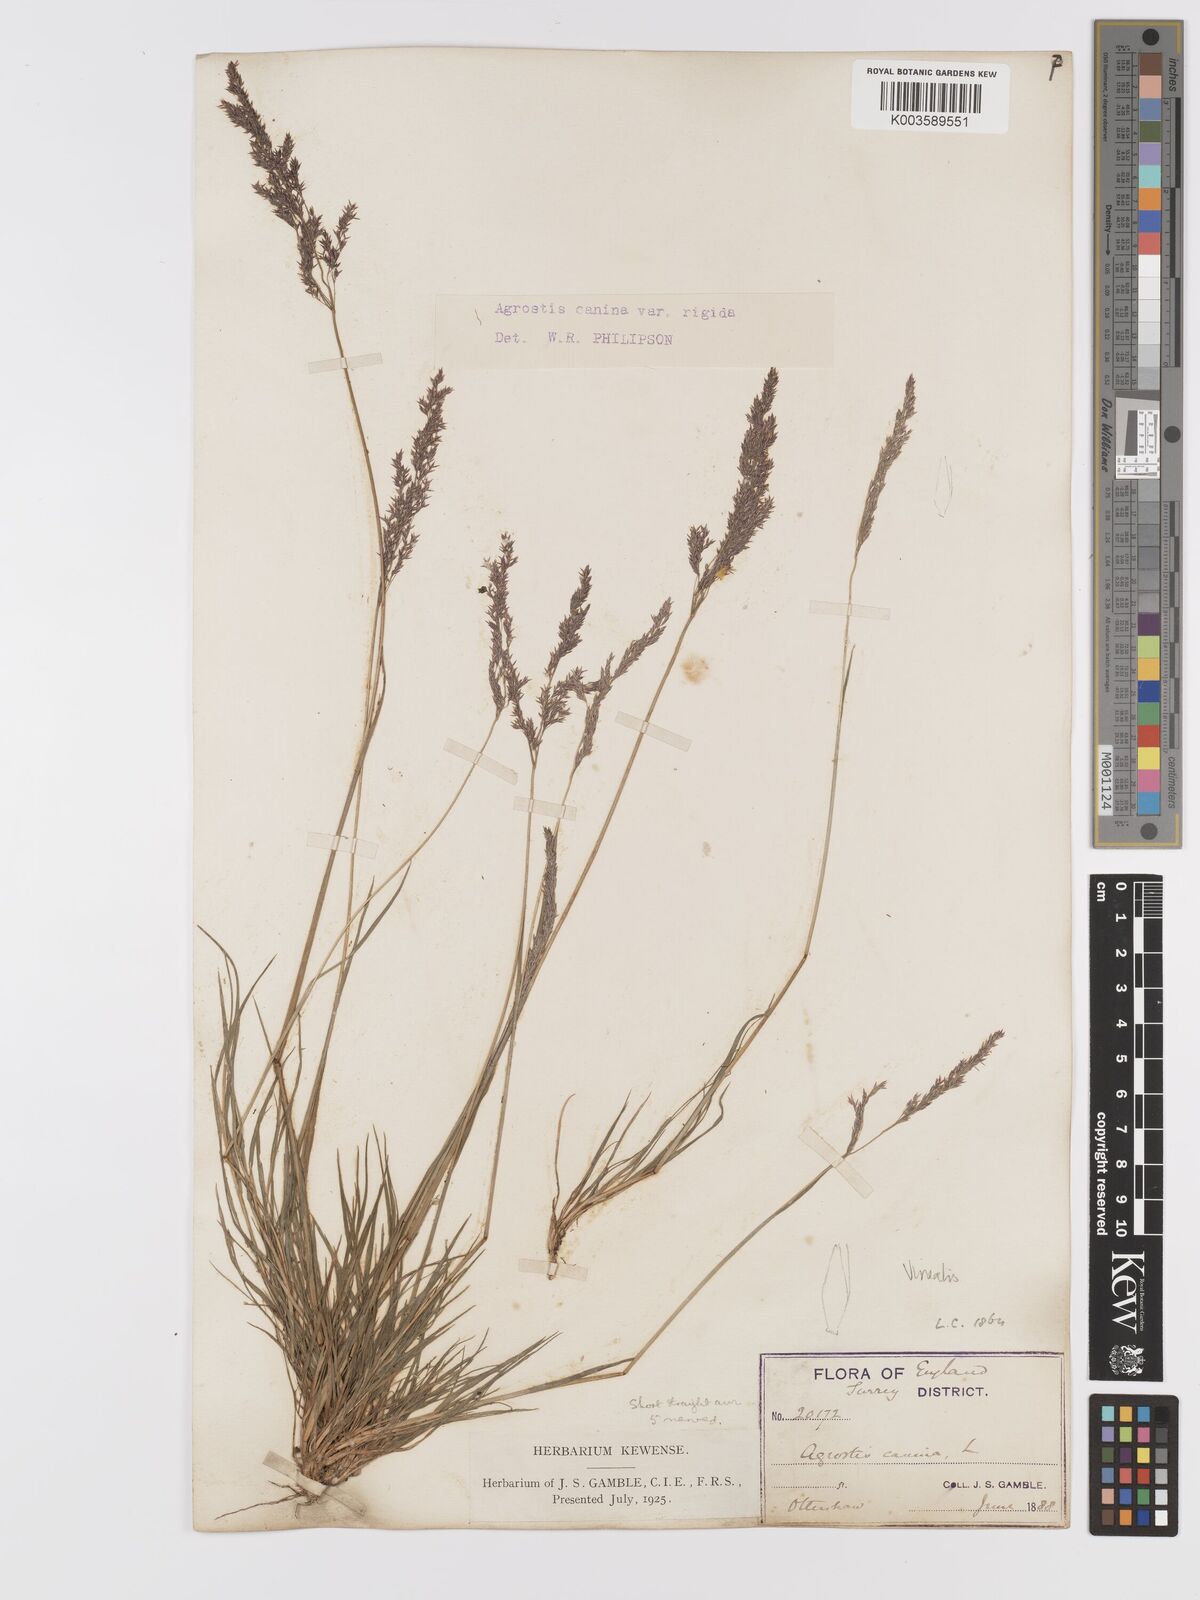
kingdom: Plantae
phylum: Tracheophyta
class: Liliopsida
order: Poales
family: Poaceae
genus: Agrostis
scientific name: Agrostis
